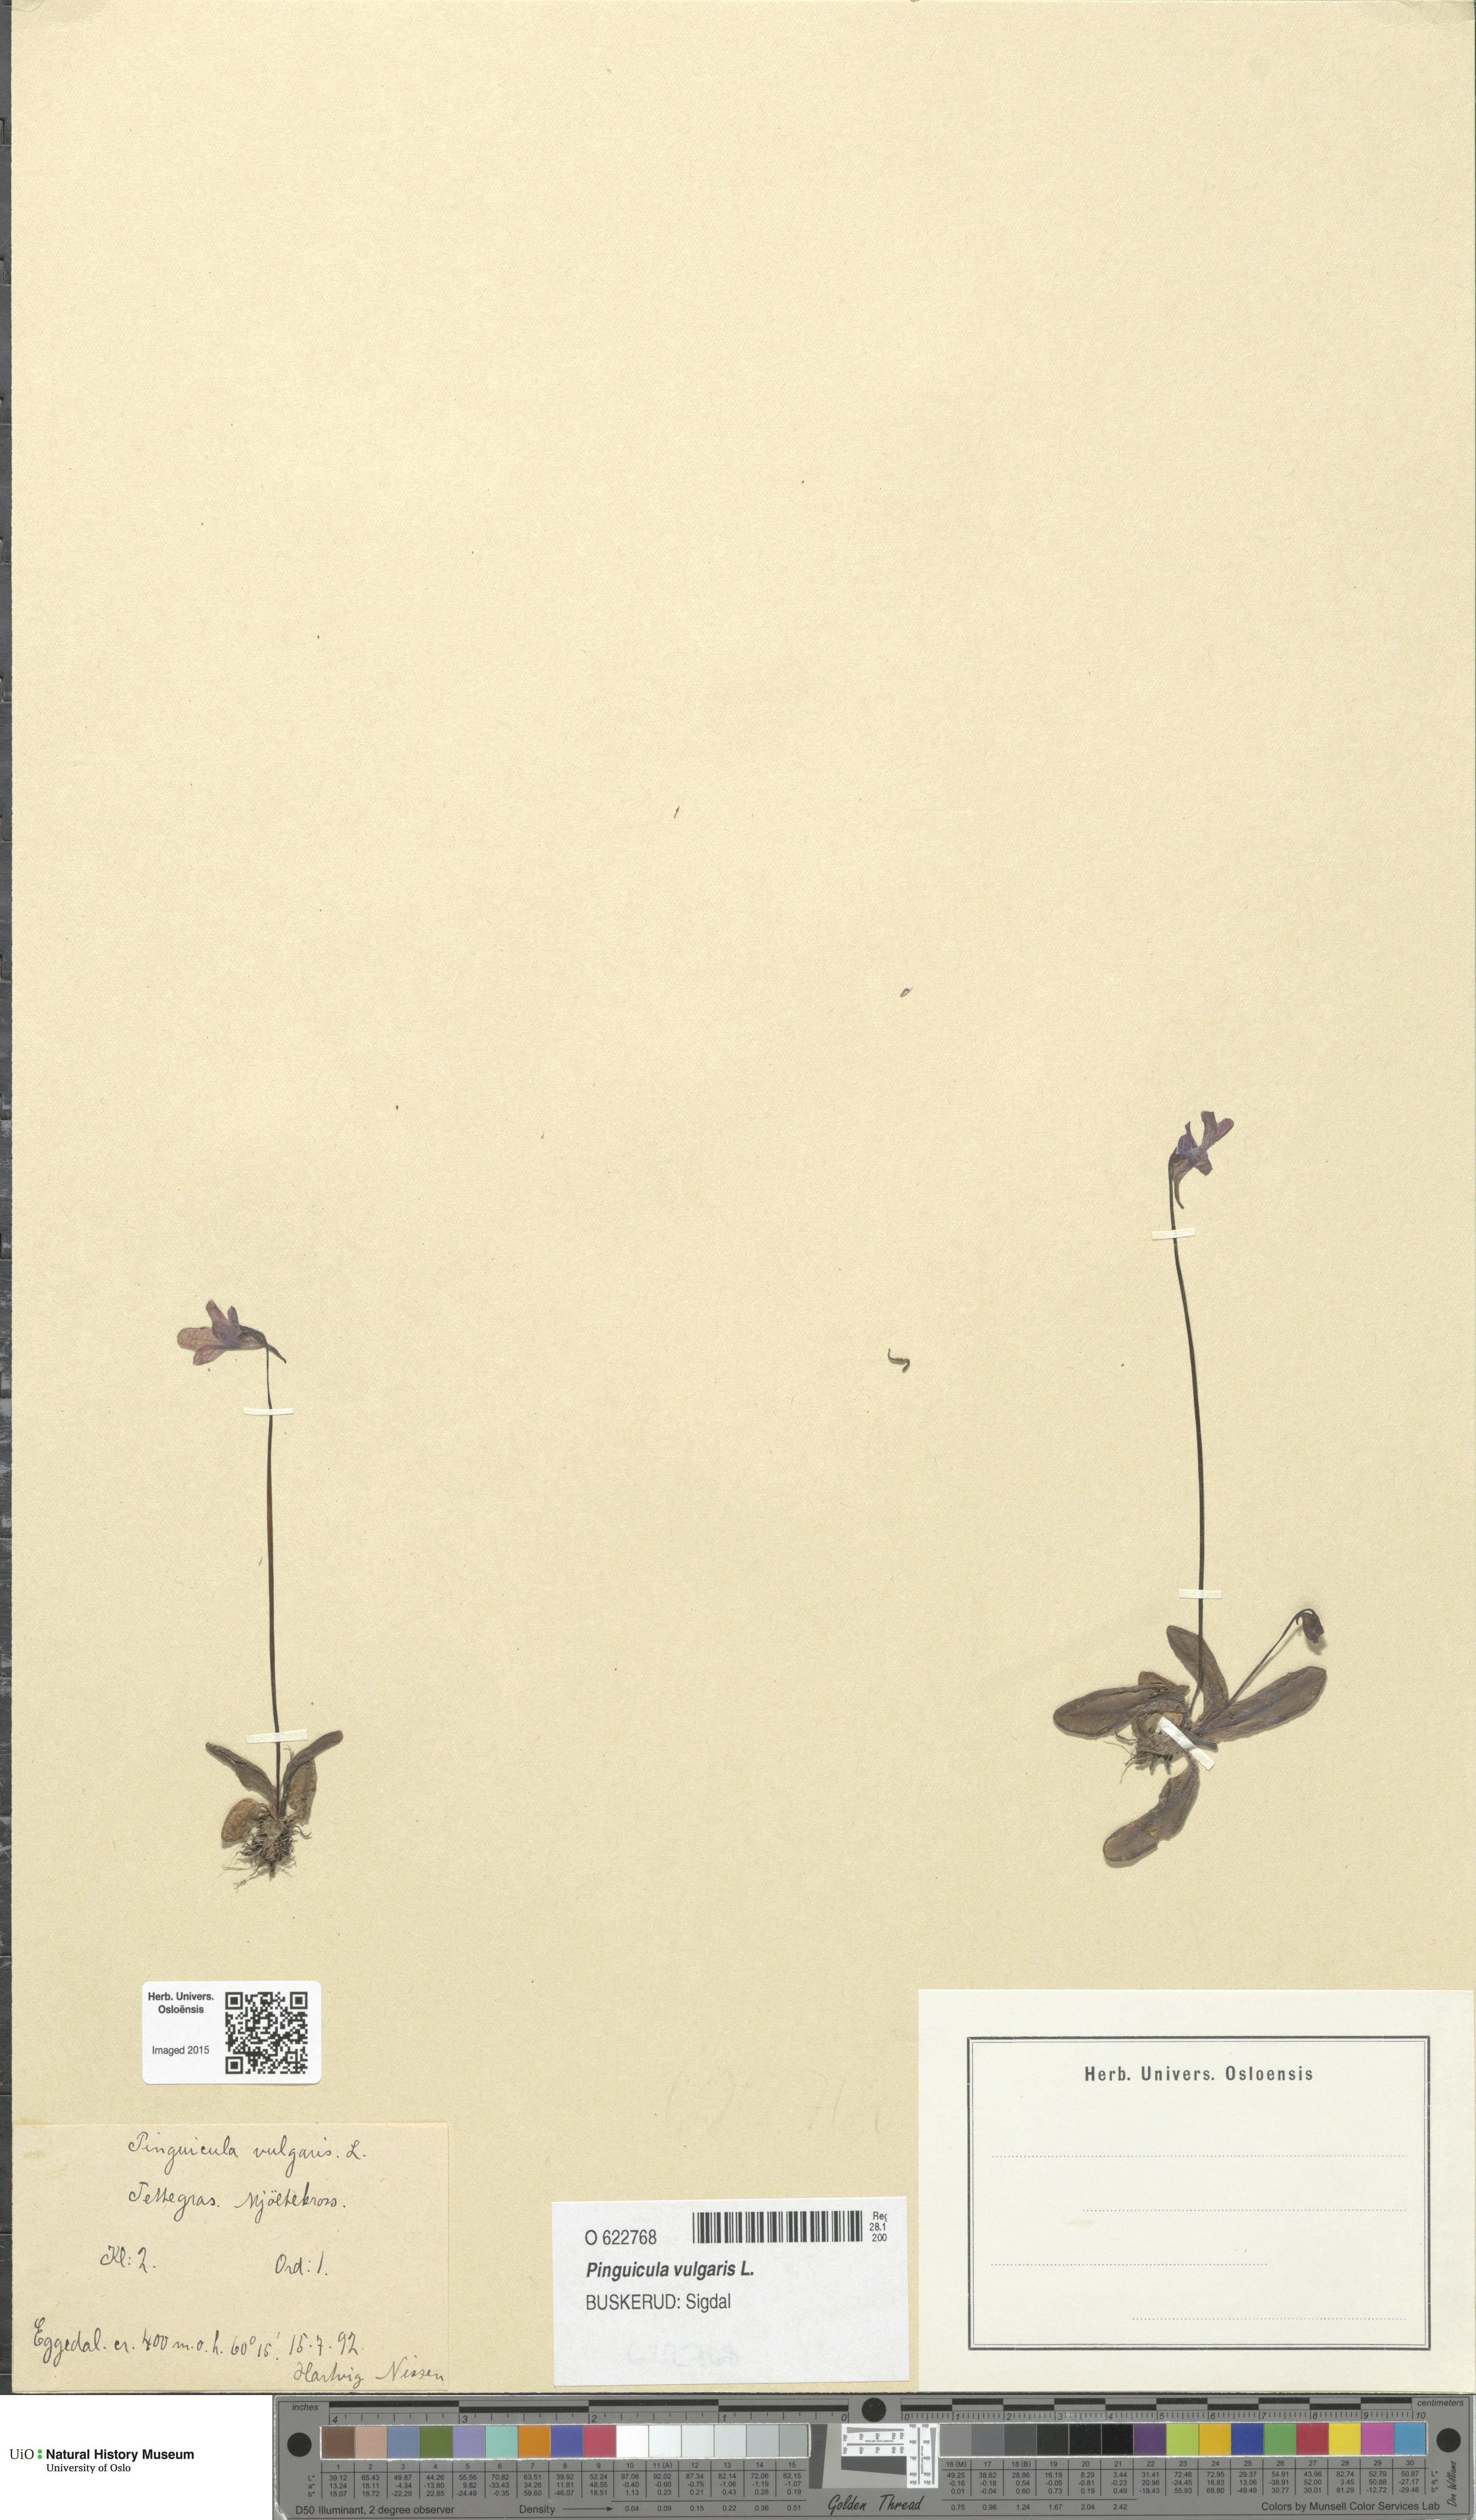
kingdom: Plantae
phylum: Tracheophyta
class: Magnoliopsida
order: Lamiales
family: Lentibulariaceae
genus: Pinguicula
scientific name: Pinguicula vulgaris
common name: Common butterwort
